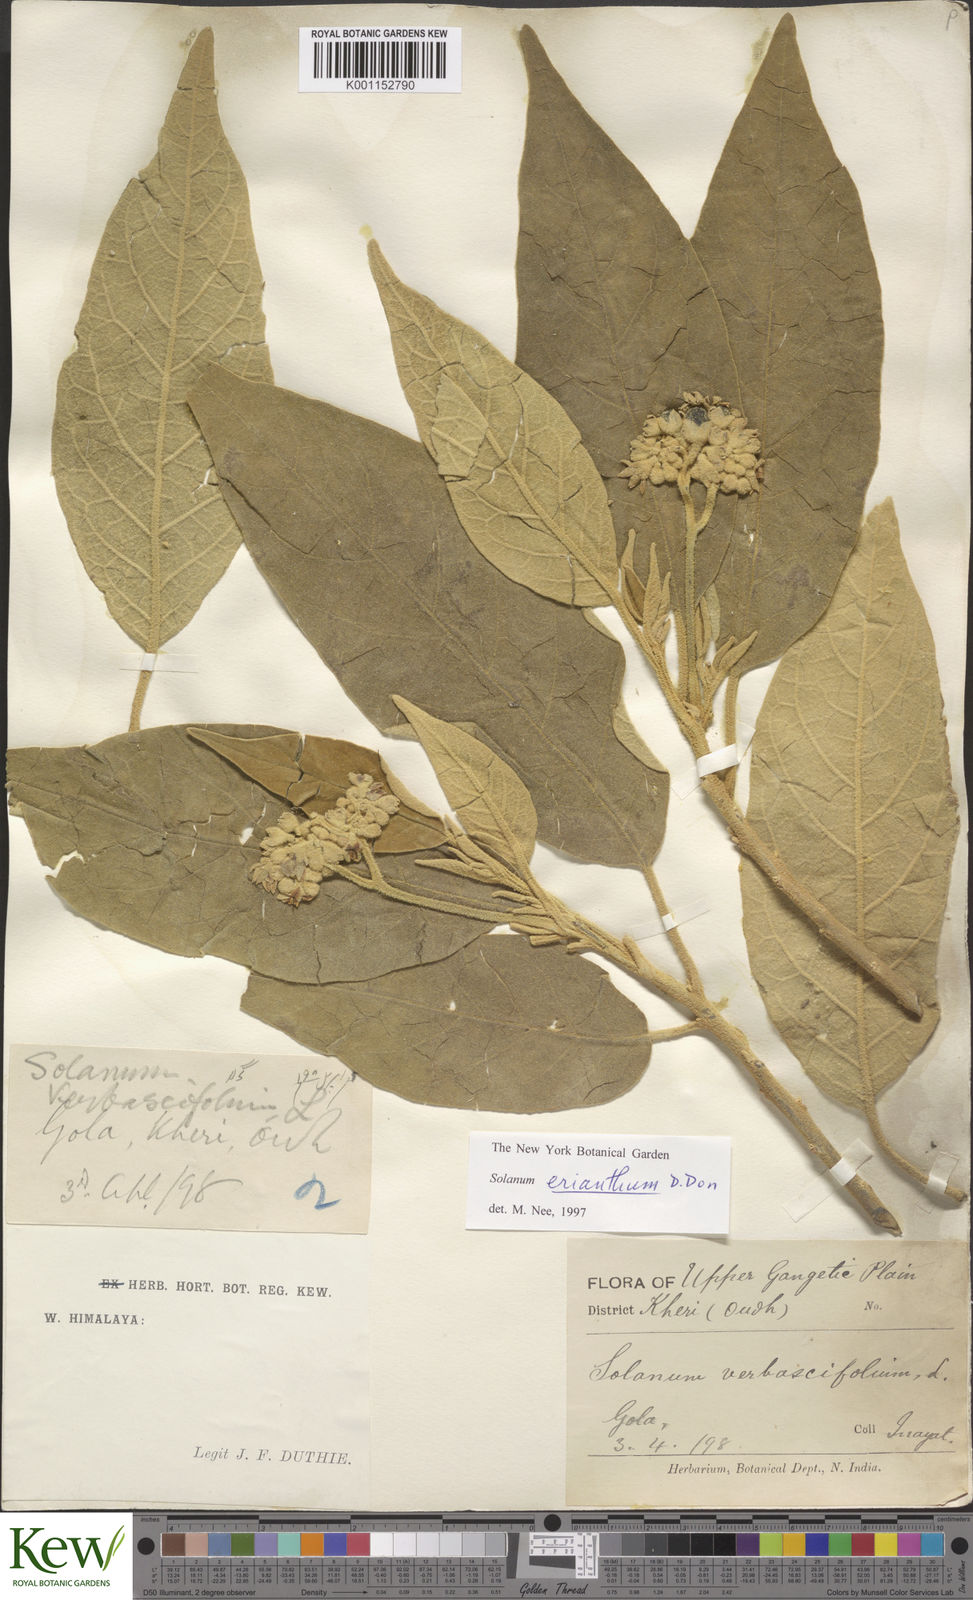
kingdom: Plantae
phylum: Tracheophyta
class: Magnoliopsida
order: Solanales
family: Solanaceae
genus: Solanum
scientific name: Solanum erianthum
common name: Tobacco-tree
